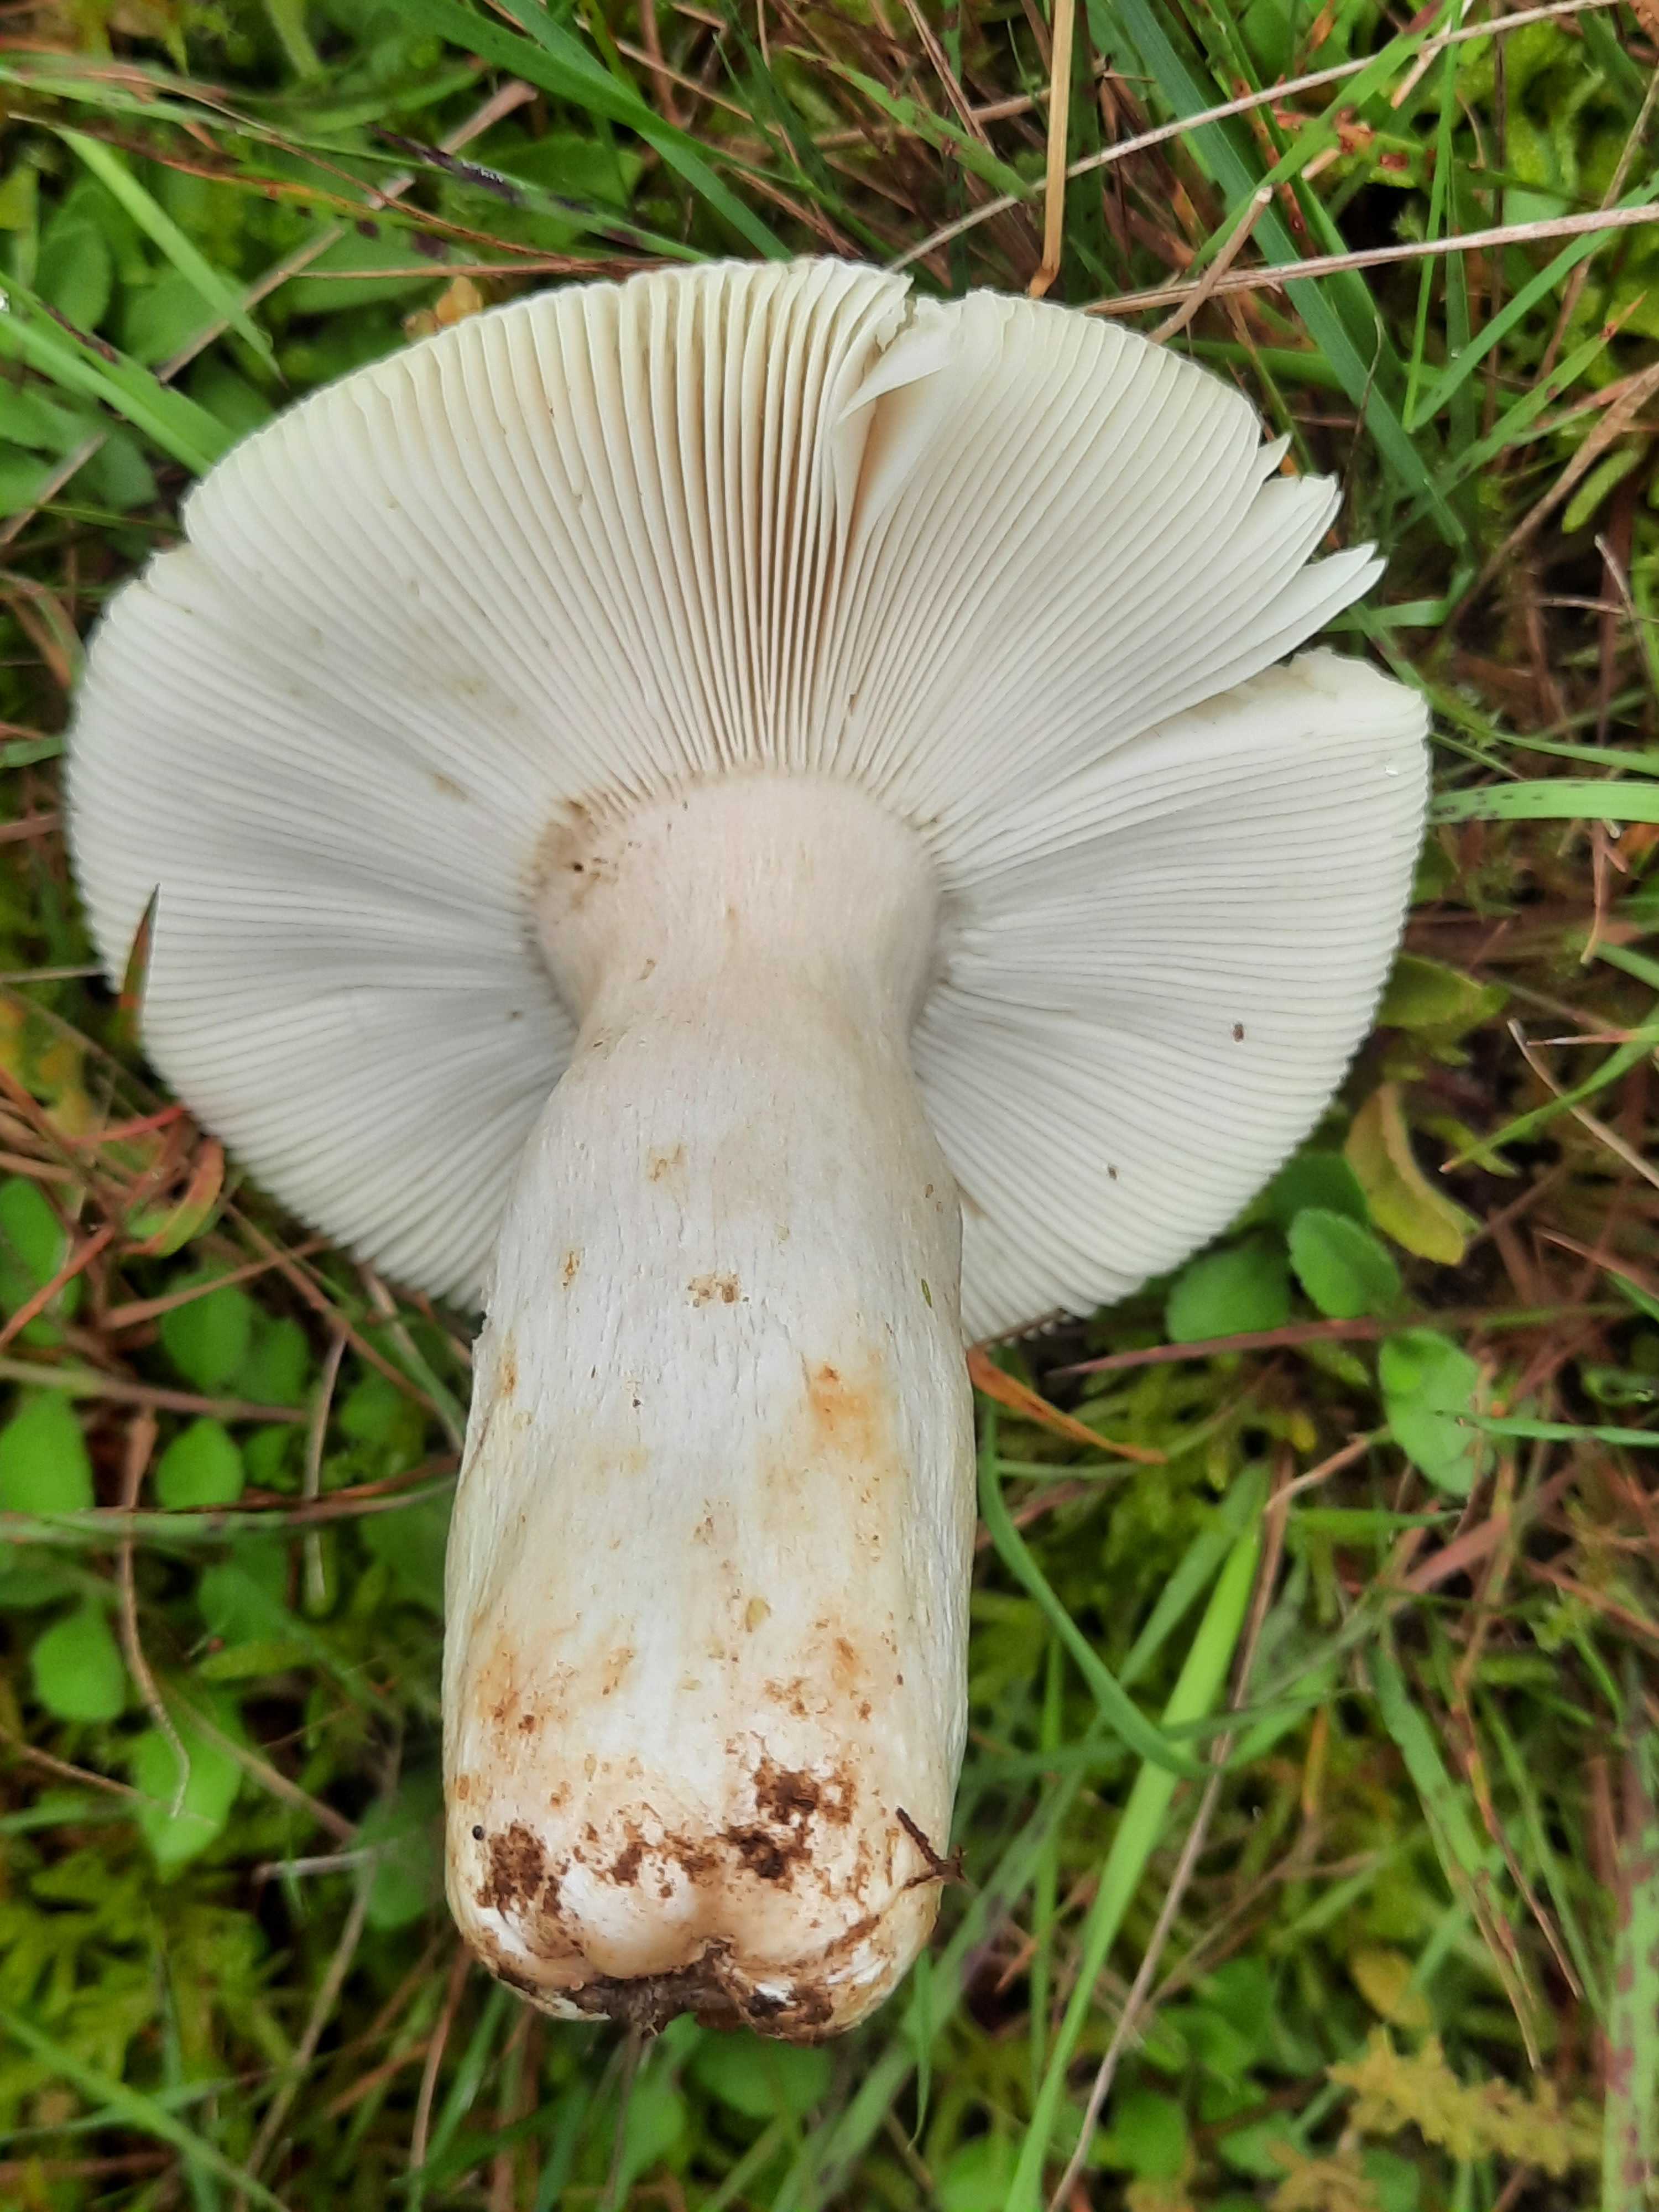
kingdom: Fungi
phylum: Basidiomycota
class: Agaricomycetes
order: Russulales
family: Russulaceae
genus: Russula
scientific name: Russula aeruginea
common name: græsgrøn skørhat
